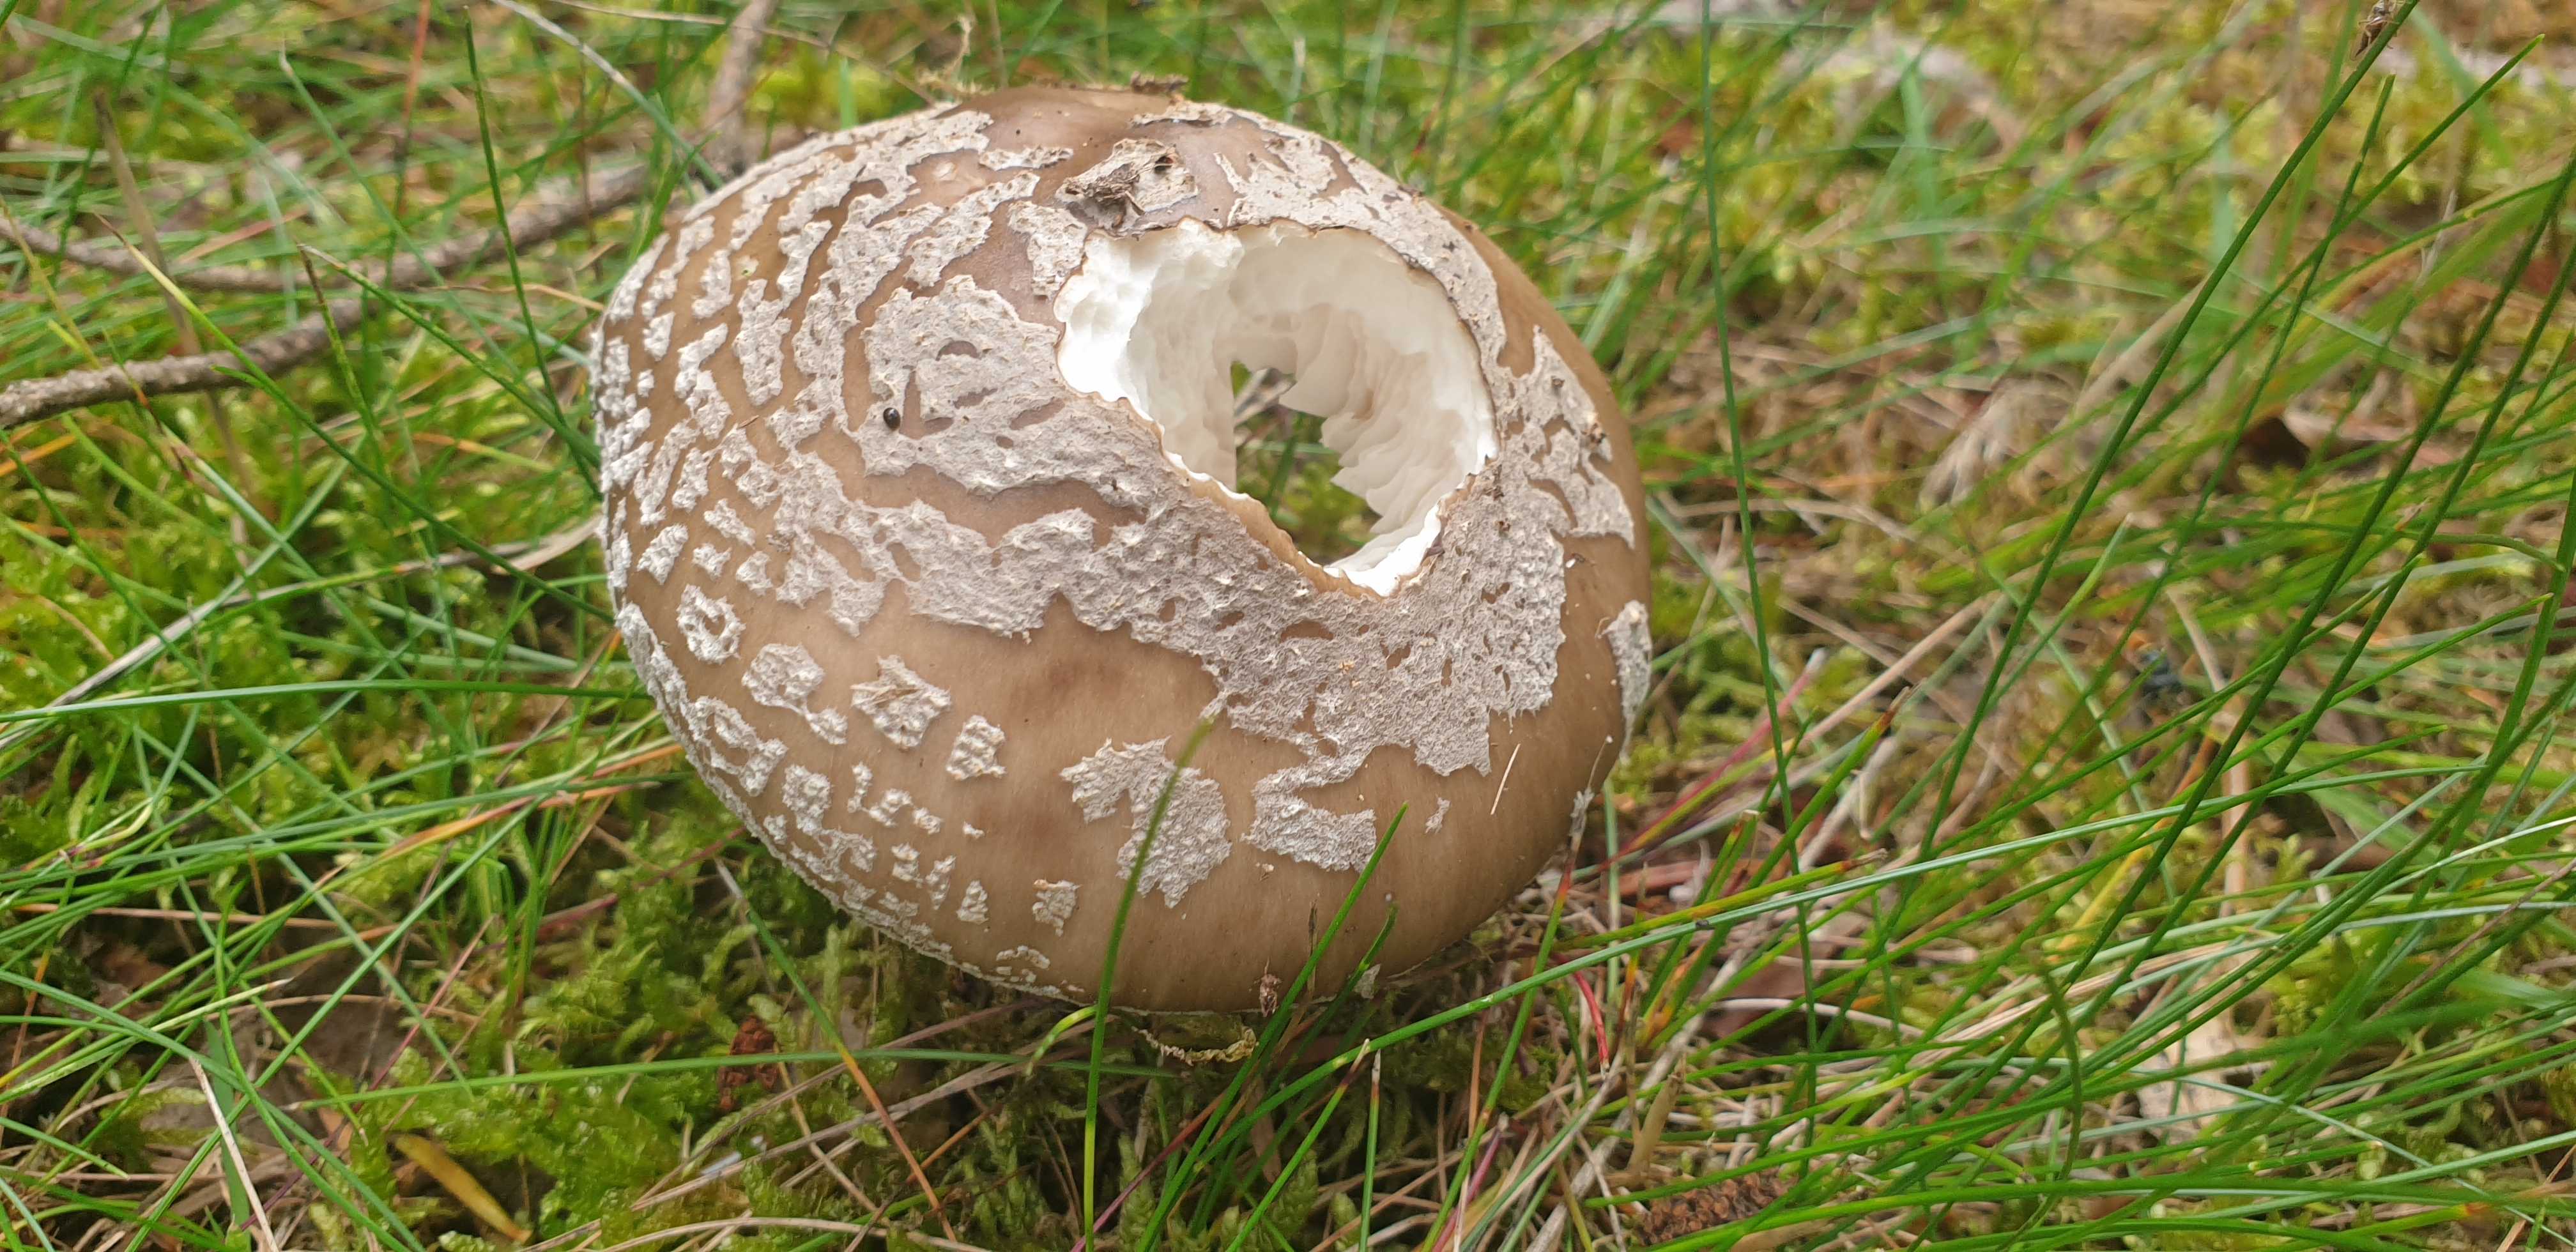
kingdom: Fungi
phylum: Basidiomycota
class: Agaricomycetes
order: Agaricales
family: Amanitaceae
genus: Amanita
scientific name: Amanita
